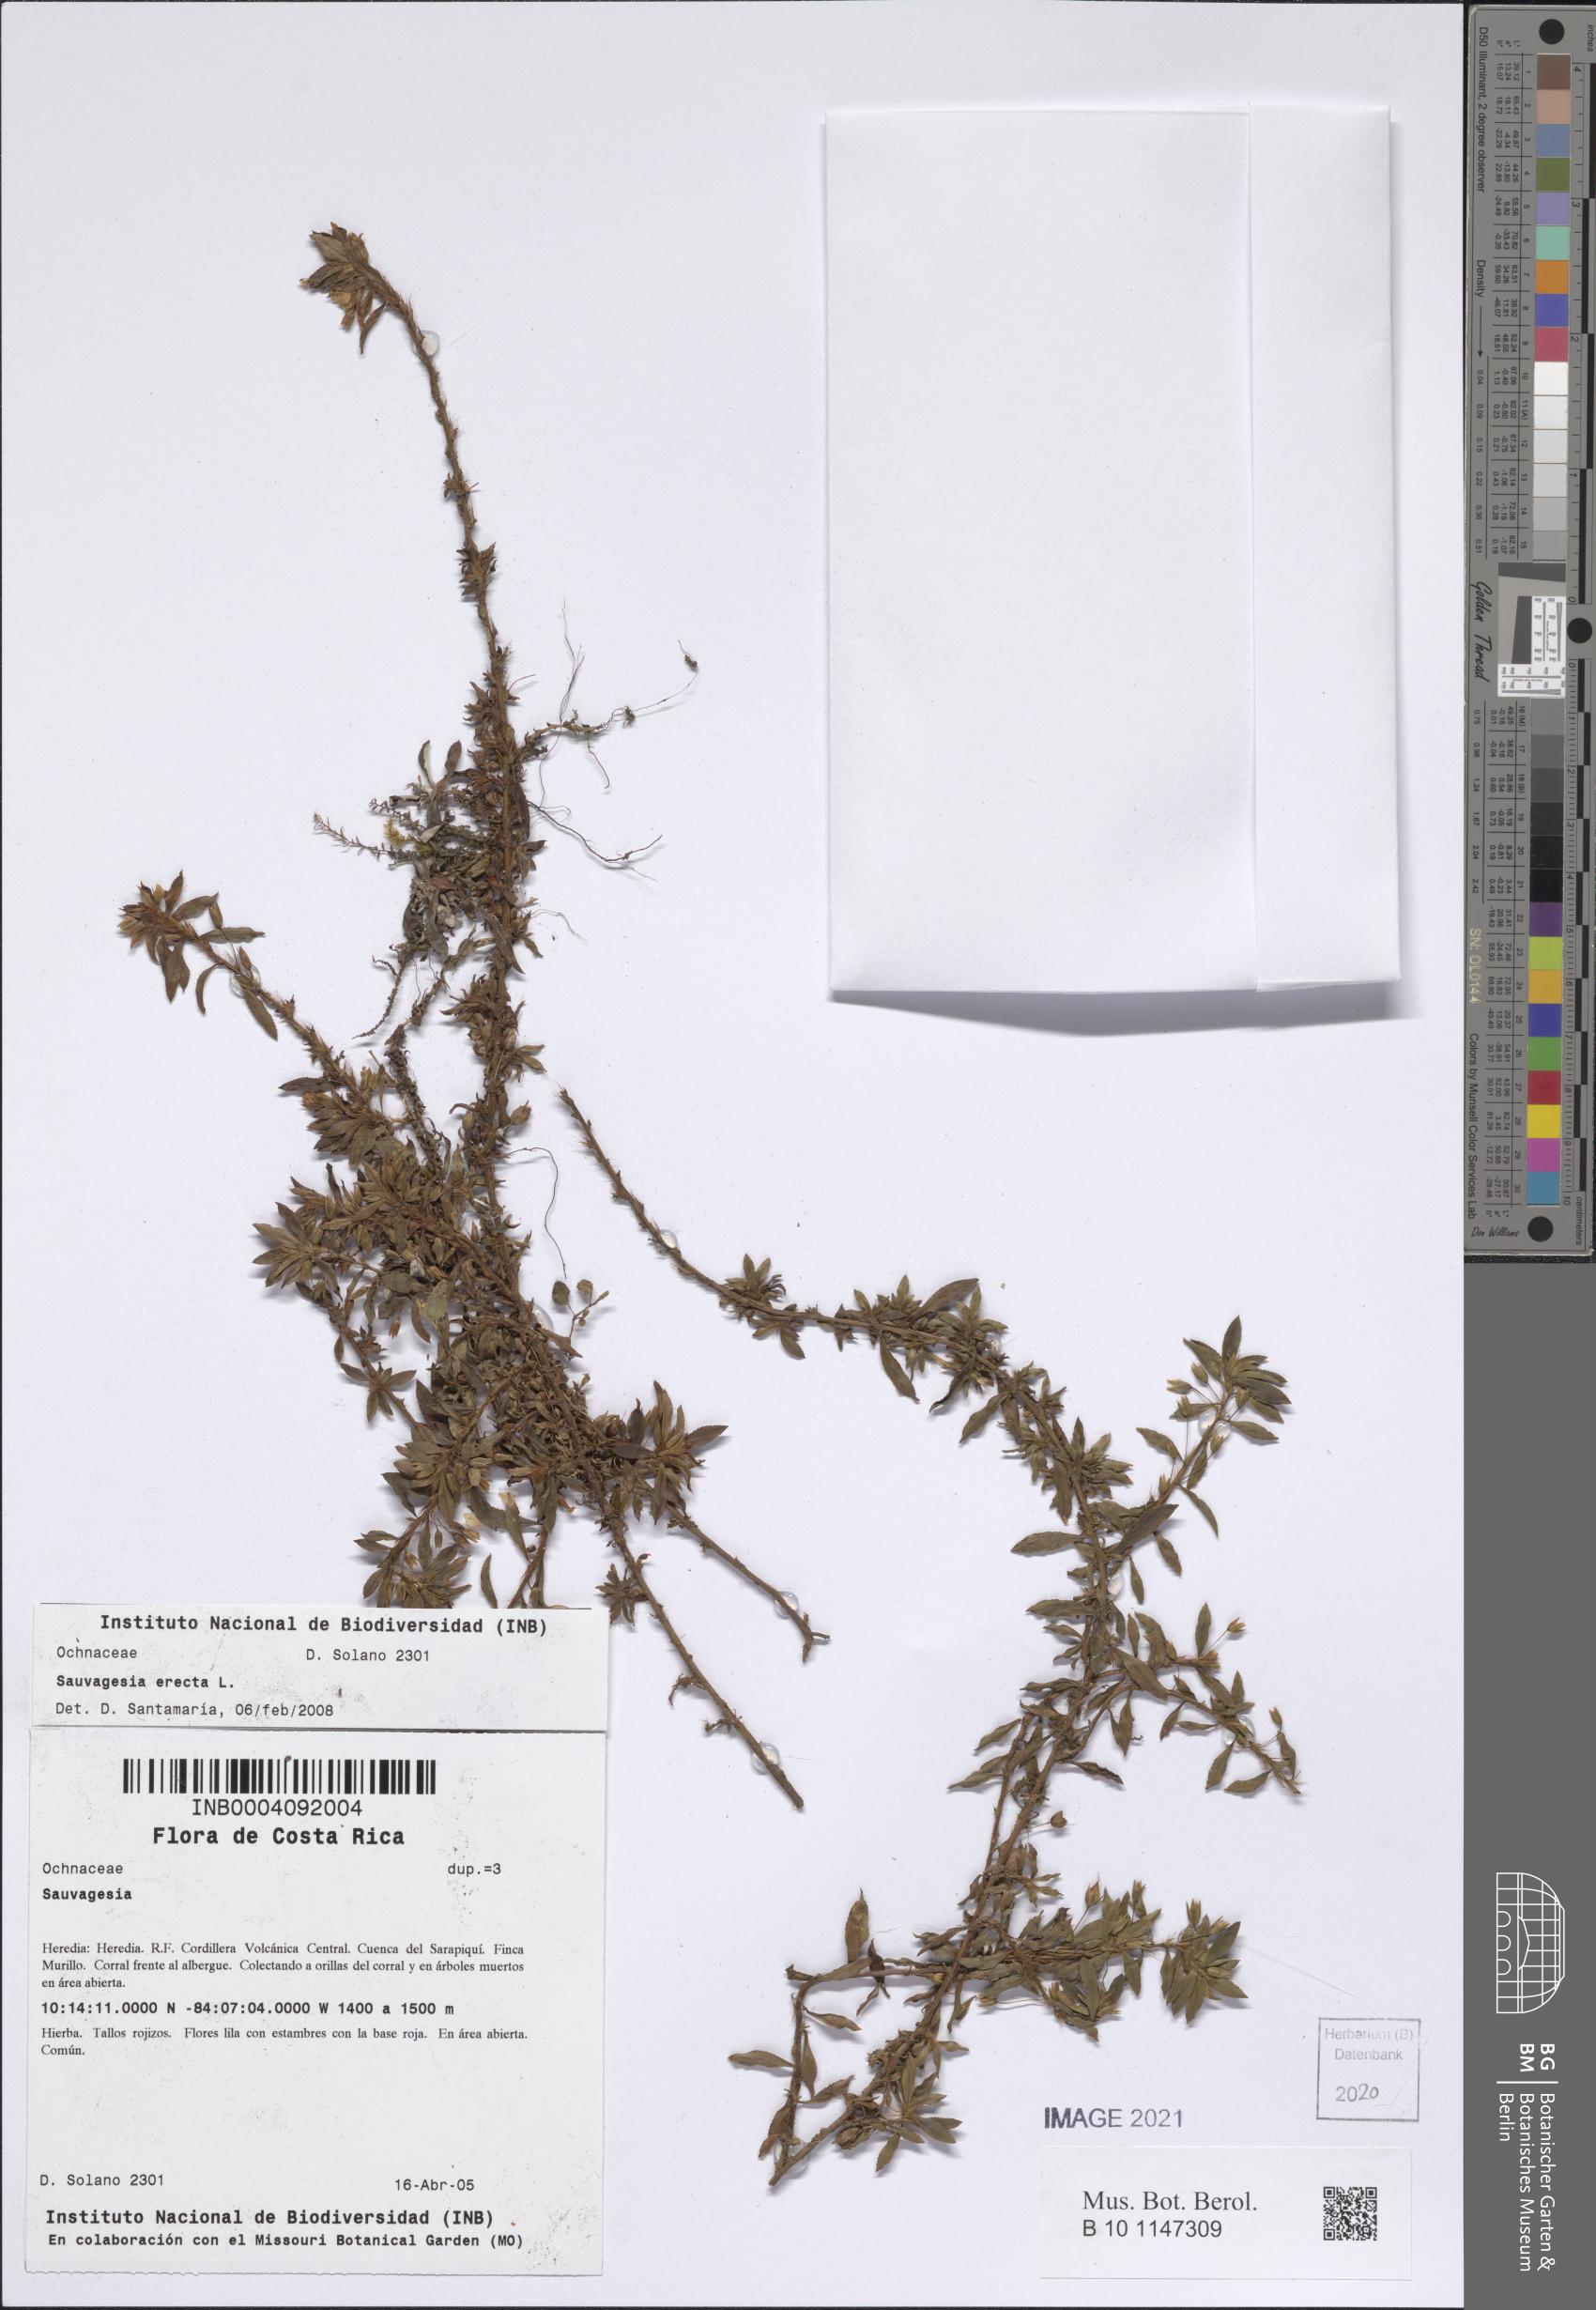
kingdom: Plantae
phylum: Tracheophyta
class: Magnoliopsida
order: Malpighiales
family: Ochnaceae
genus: Sauvagesia
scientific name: Sauvagesia erecta
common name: Creole tea
